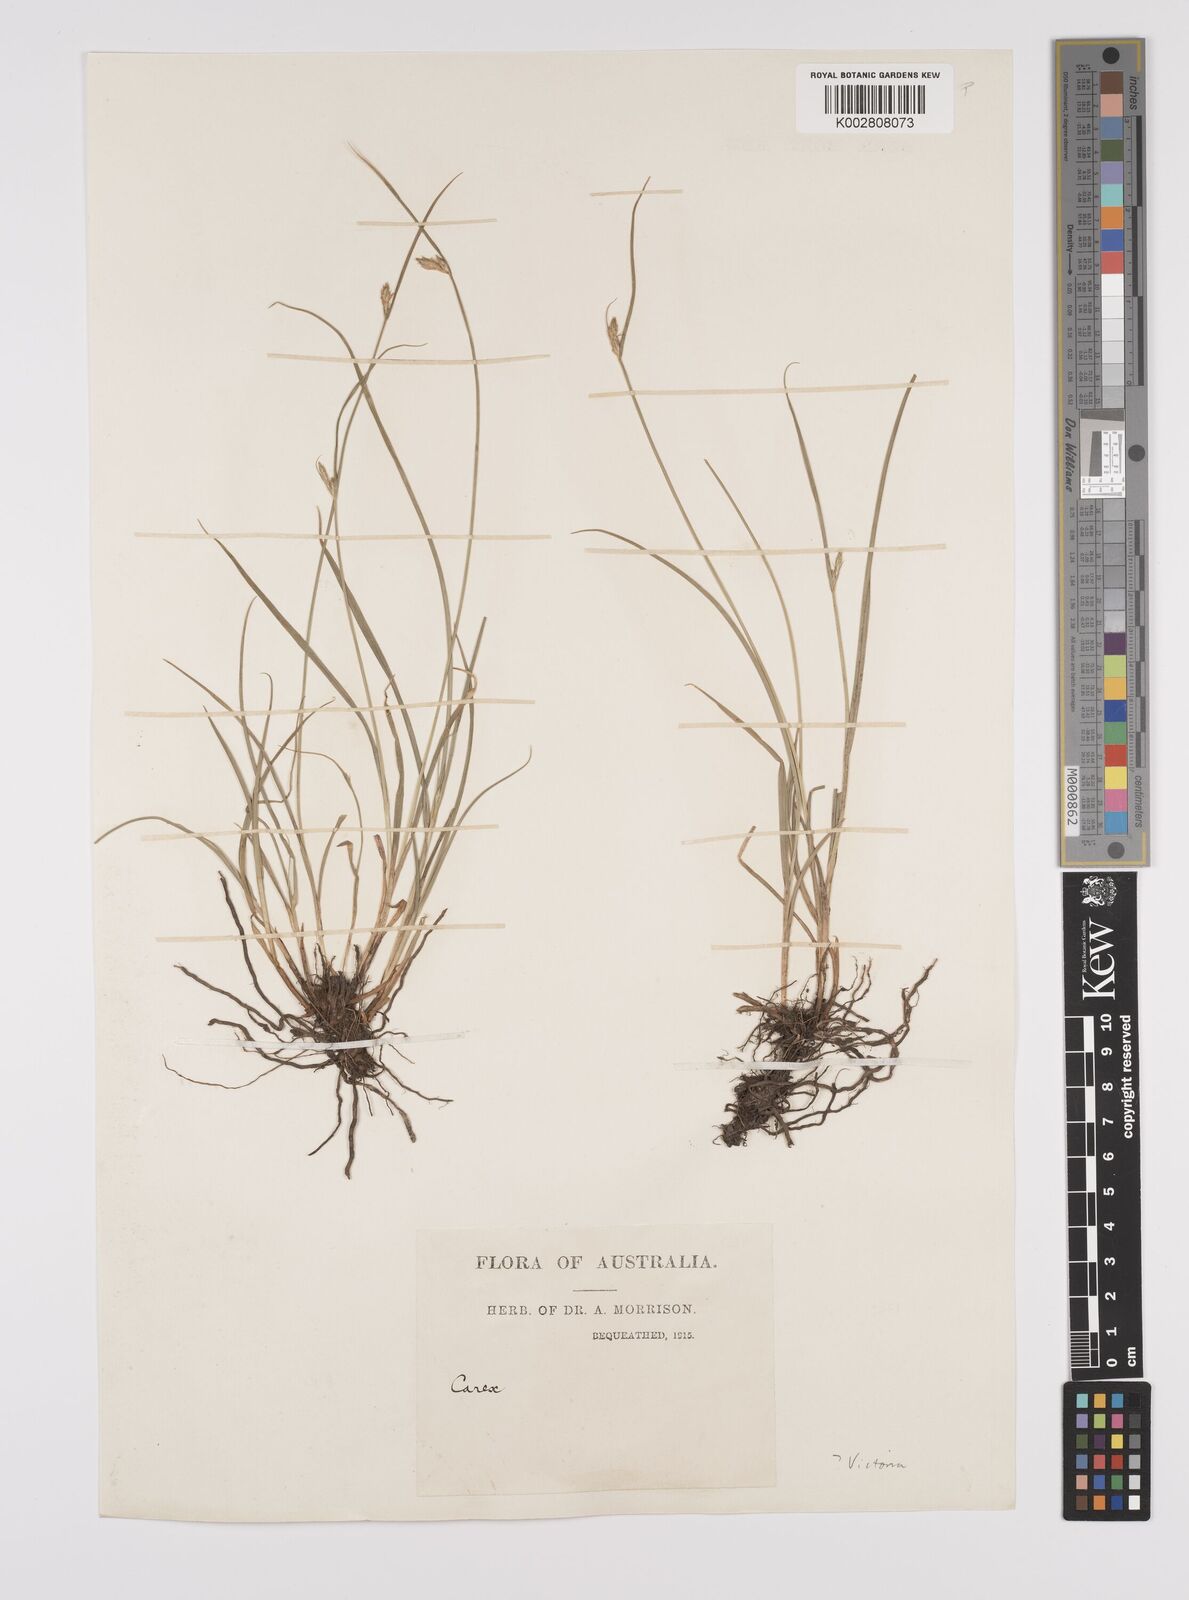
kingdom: Plantae
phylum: Tracheophyta
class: Liliopsida
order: Poales
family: Cyperaceae
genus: Carex
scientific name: Carex inversa
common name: Knob sedge
